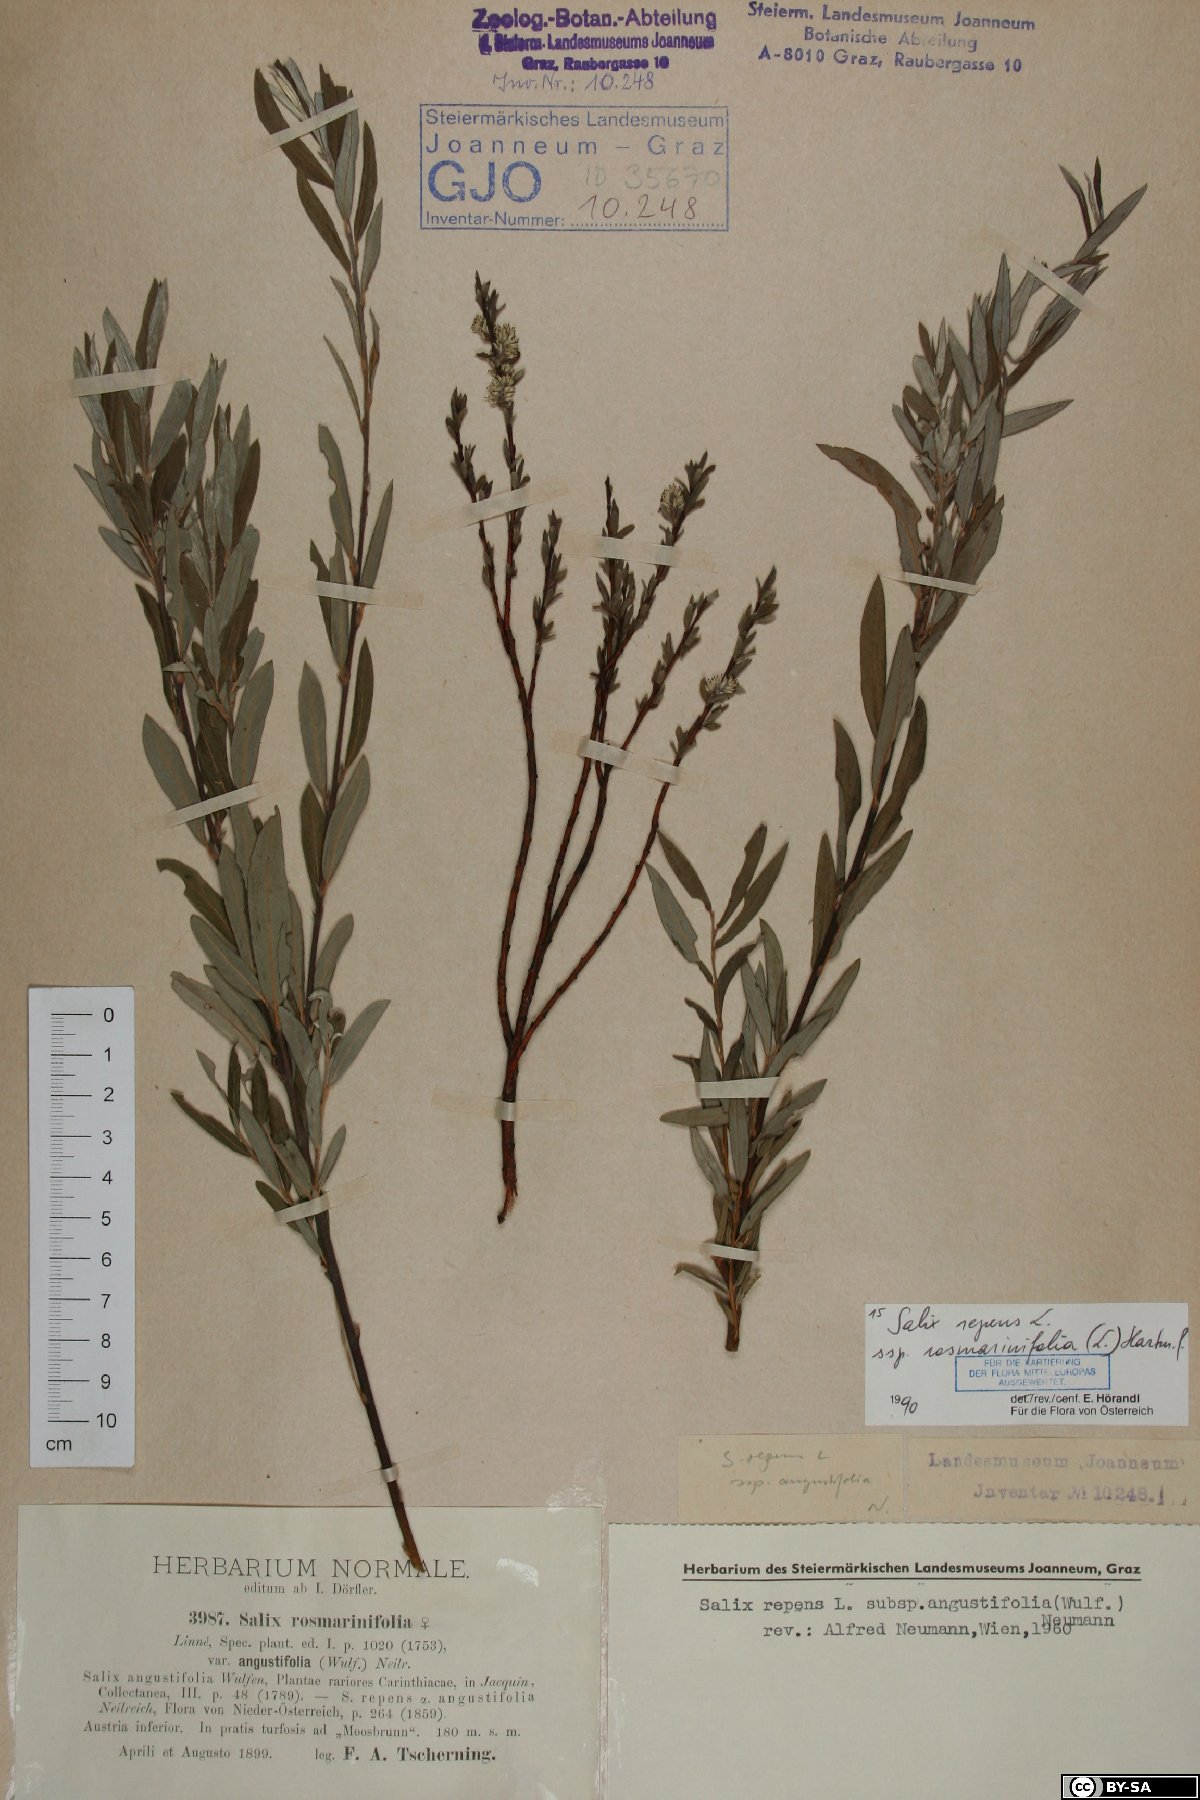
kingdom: Plantae
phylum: Tracheophyta
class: Magnoliopsida
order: Malpighiales
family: Salicaceae
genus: Salix
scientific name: Salix repens
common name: Creeping willow
